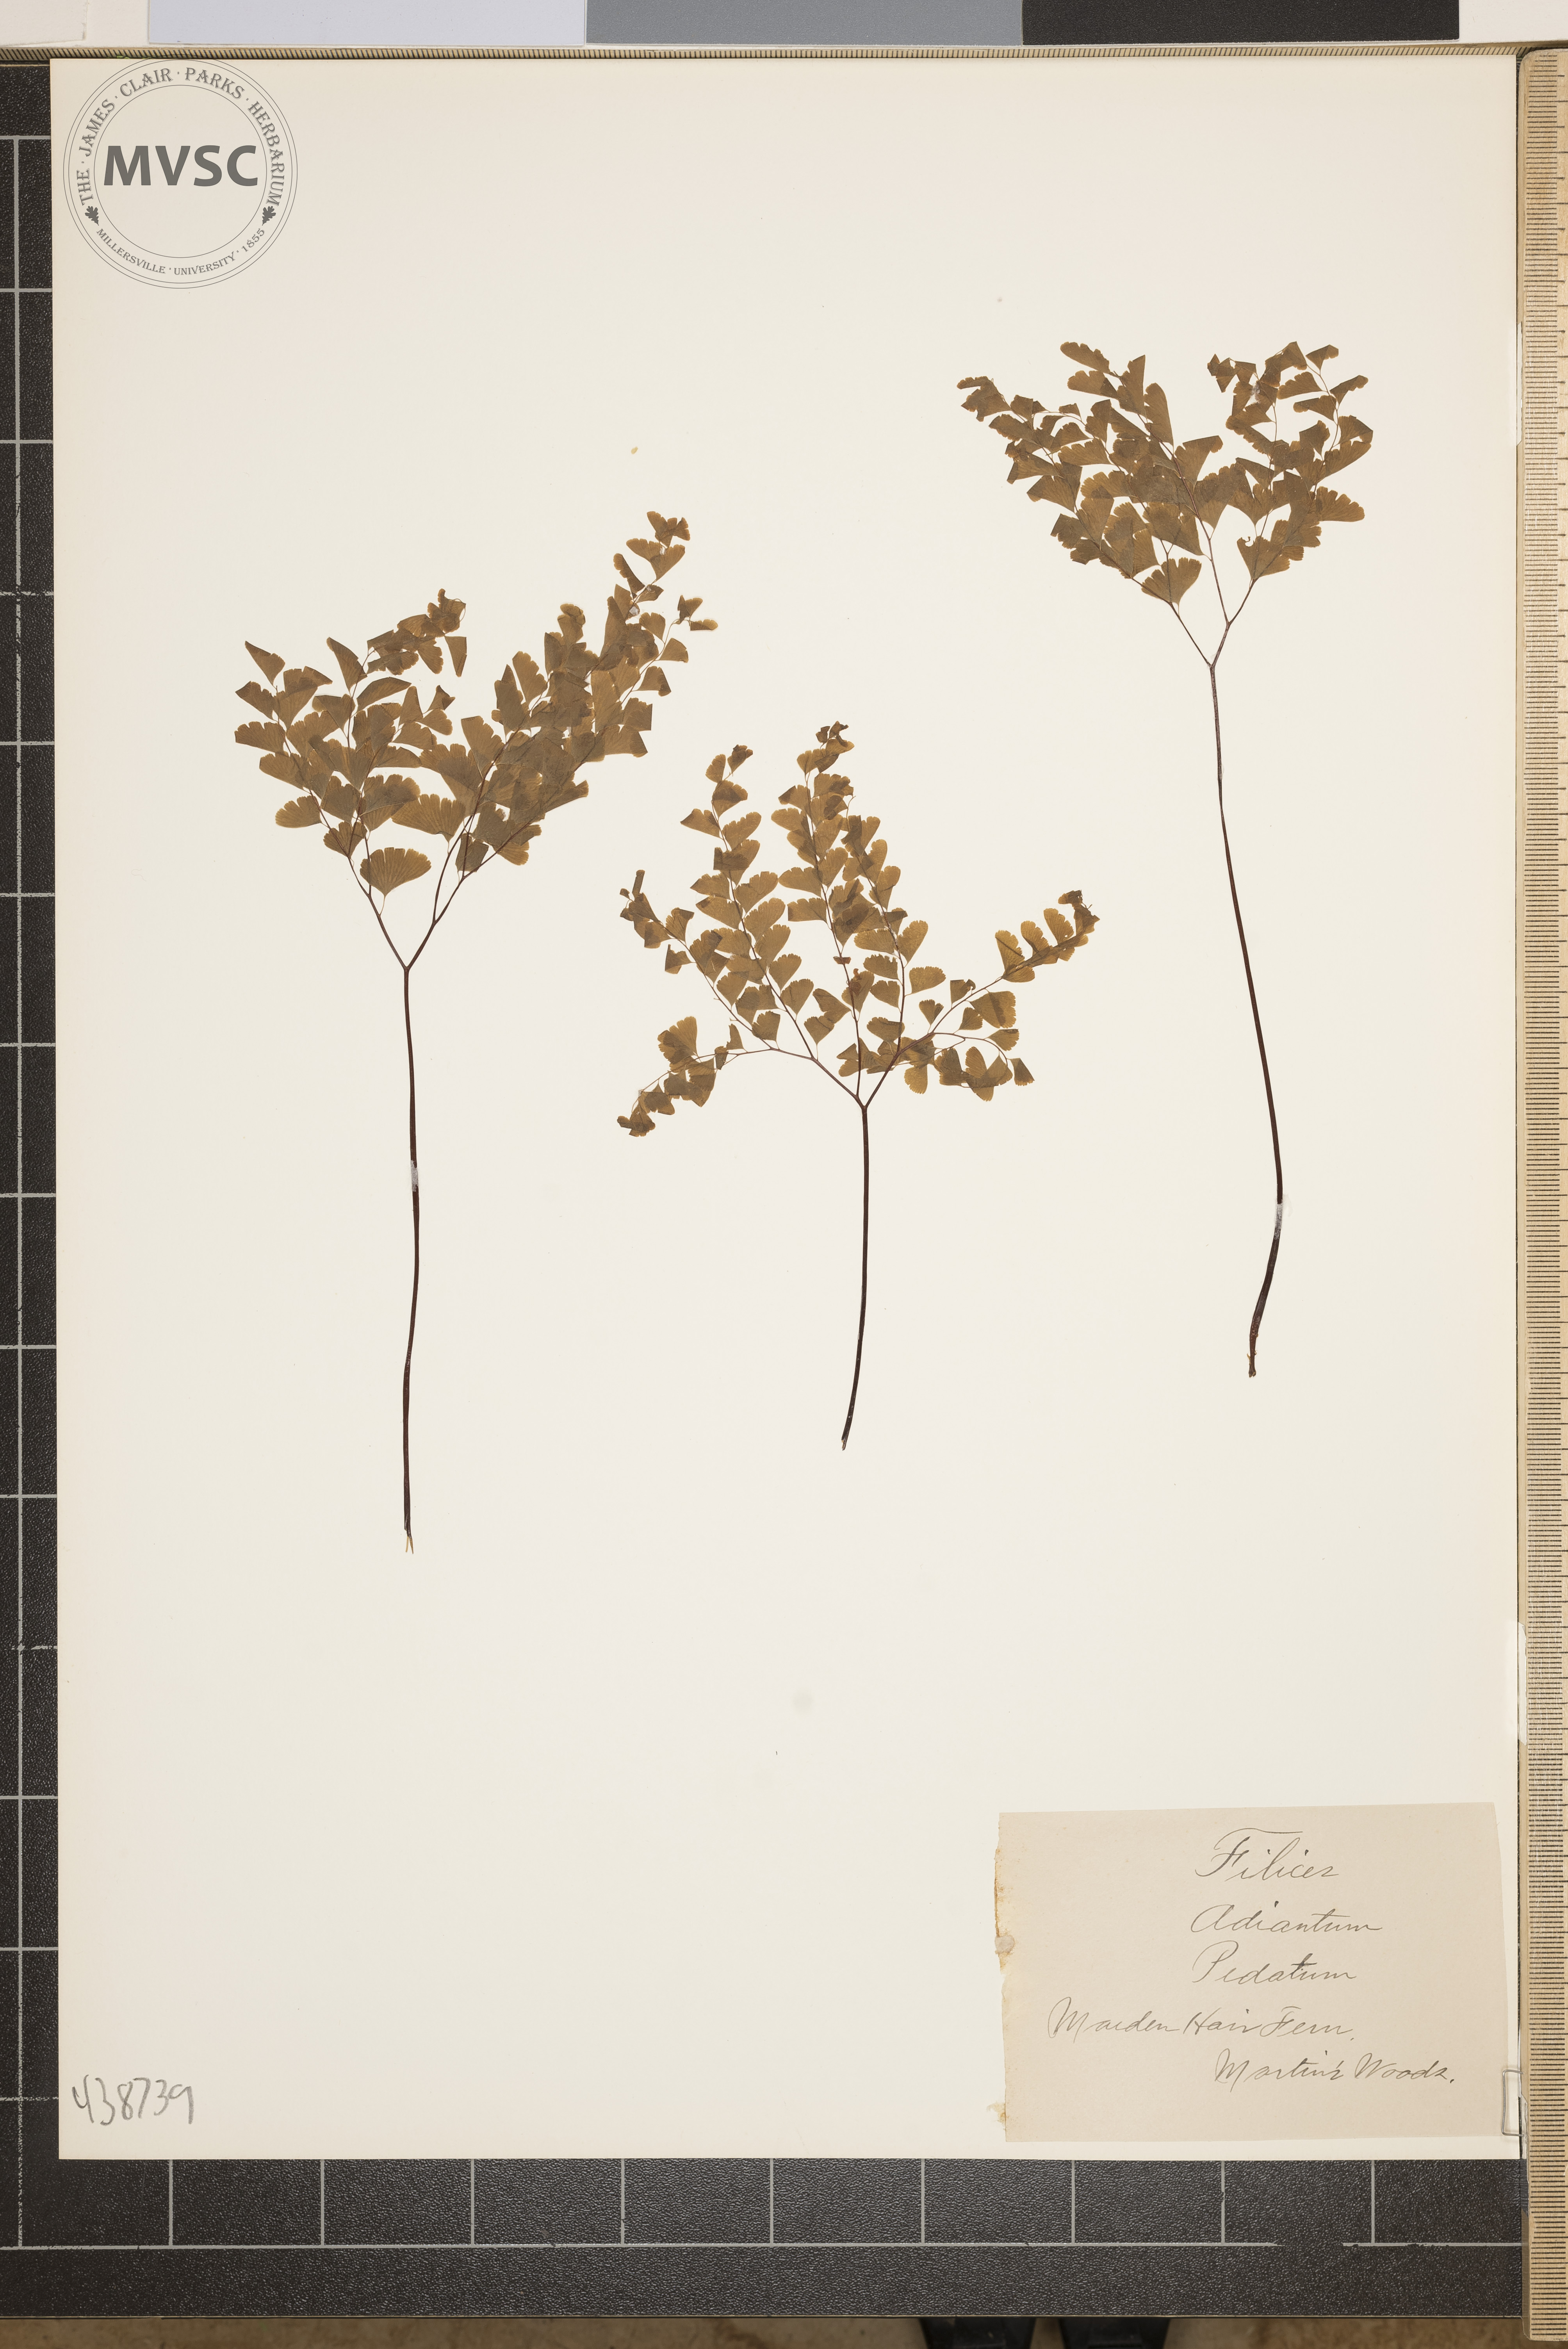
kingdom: Plantae
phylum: Tracheophyta
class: Polypodiopsida
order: Polypodiales
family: Pteridaceae
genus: Adiantum
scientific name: Adiantum pedatum
